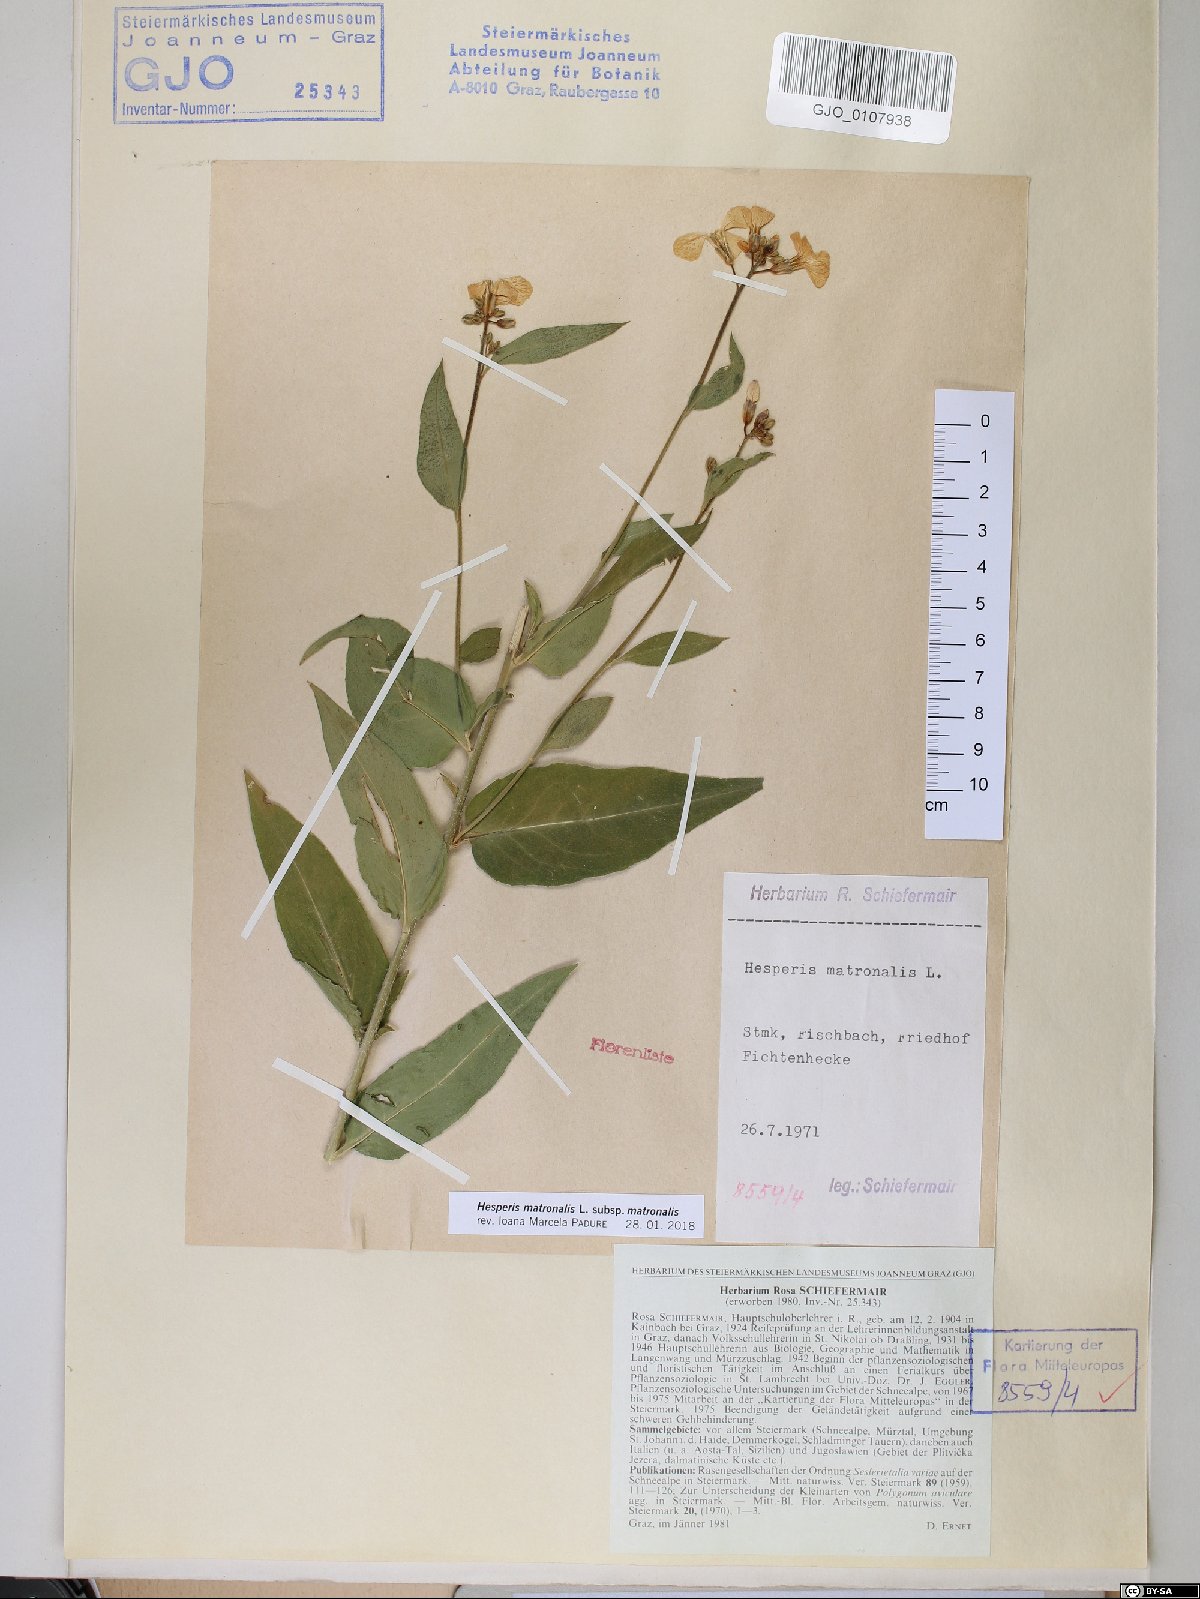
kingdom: Plantae
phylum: Tracheophyta
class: Magnoliopsida
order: Brassicales
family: Brassicaceae
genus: Hesperis
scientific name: Hesperis matronalis
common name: Dame's-violet
